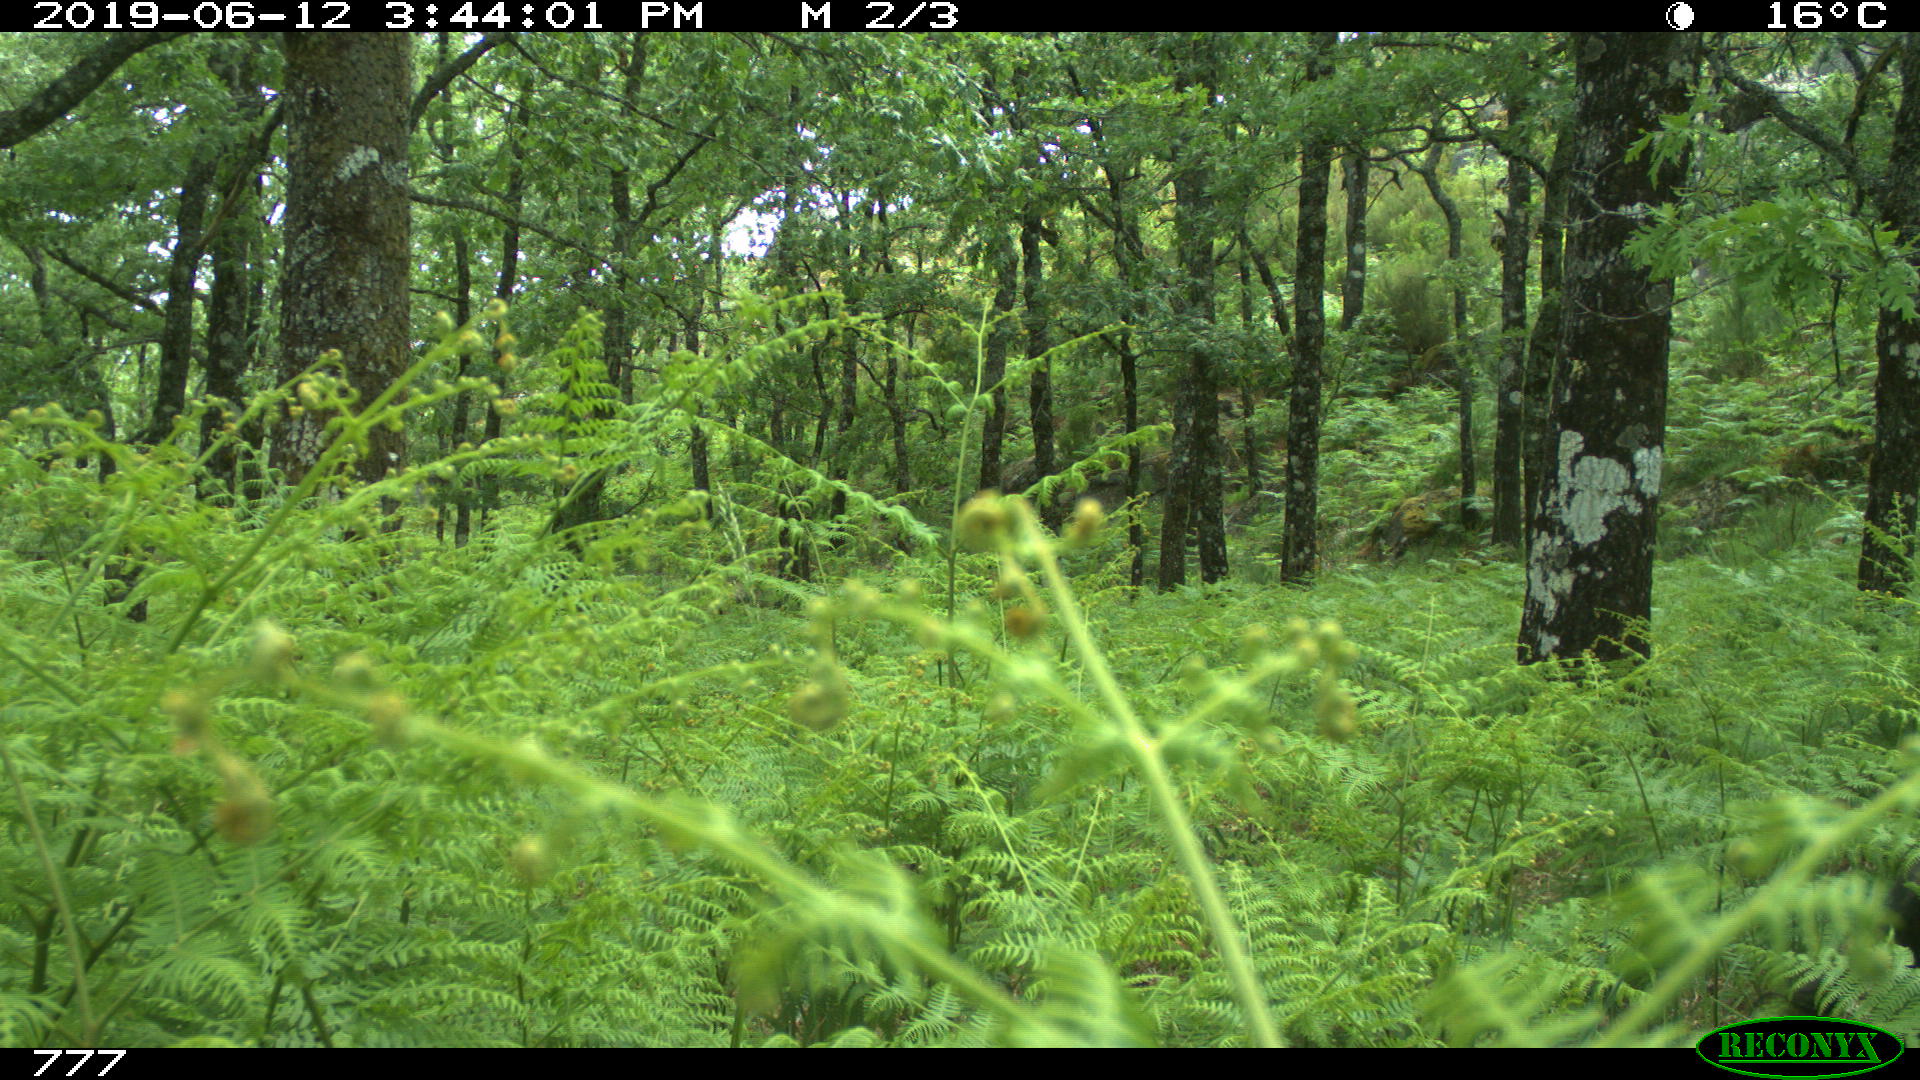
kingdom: Animalia
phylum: Chordata
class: Mammalia
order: Artiodactyla
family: Suidae
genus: Sus
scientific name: Sus scrofa
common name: Wild boar
